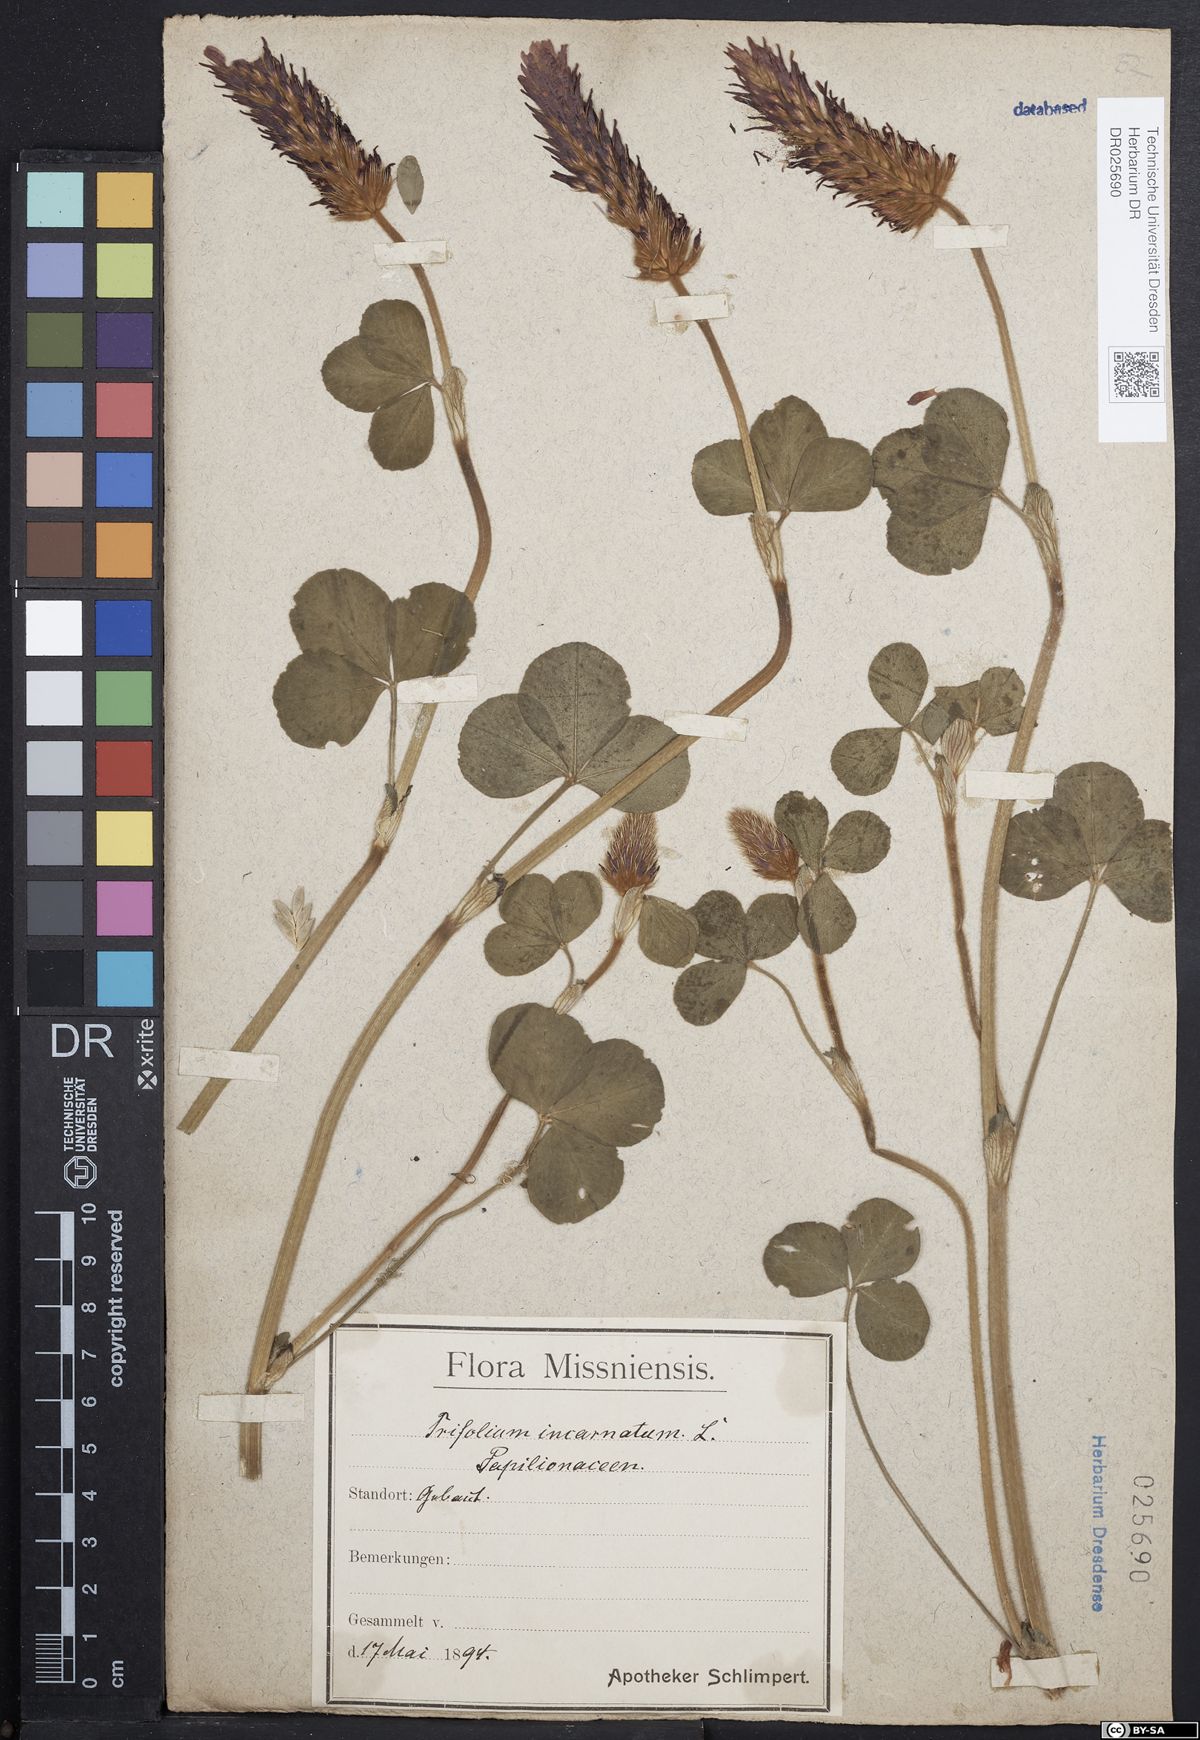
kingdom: Plantae
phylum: Tracheophyta
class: Magnoliopsida
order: Fabales
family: Fabaceae
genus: Trifolium
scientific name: Trifolium incarnatum
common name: Crimson clover
